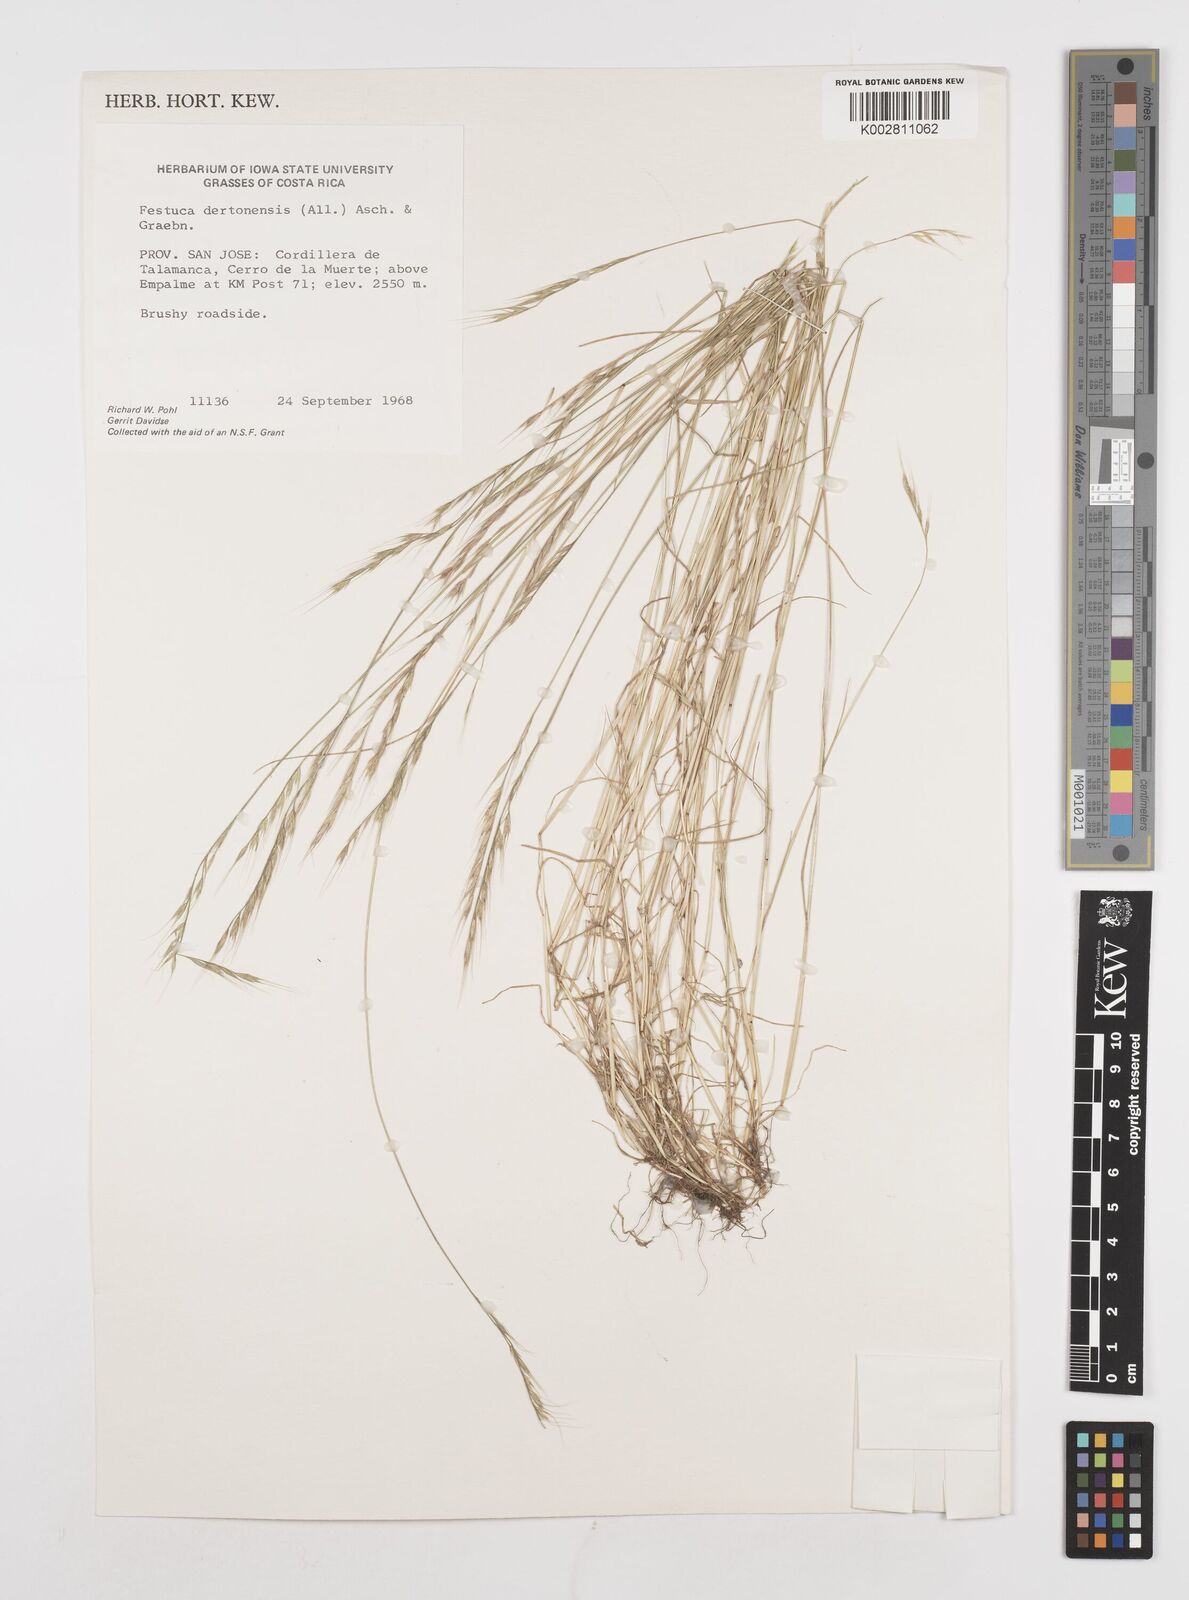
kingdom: Plantae
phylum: Tracheophyta
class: Liliopsida
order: Poales
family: Poaceae
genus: Festuca
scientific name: Festuca bromoides
